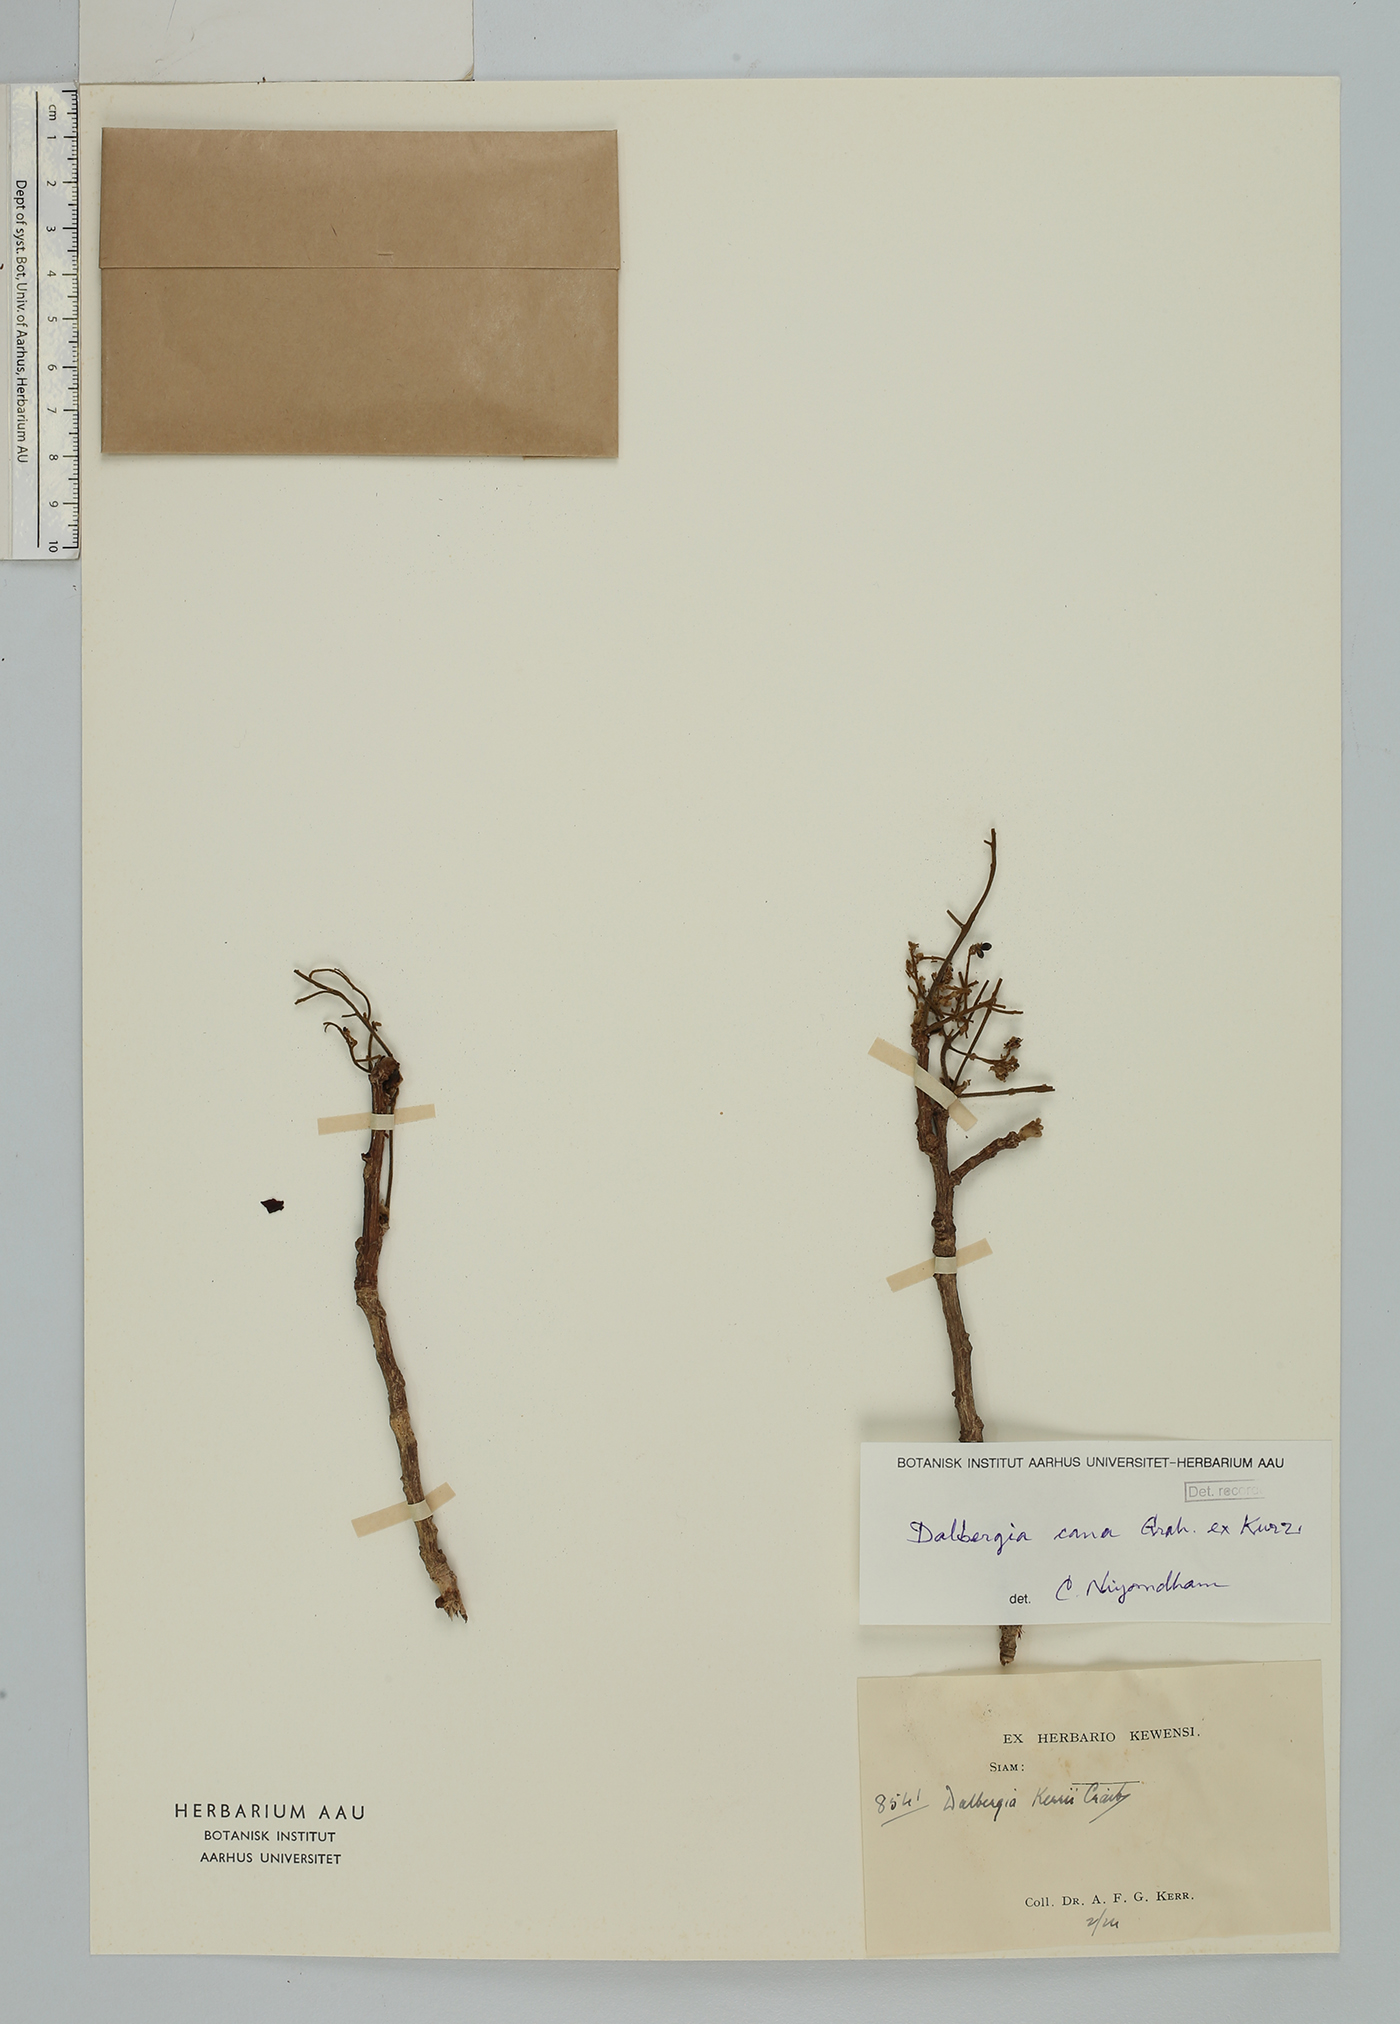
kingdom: Plantae
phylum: Tracheophyta
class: Magnoliopsida
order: Fabales
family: Fabaceae
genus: Dalbergia
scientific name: Dalbergia cana
